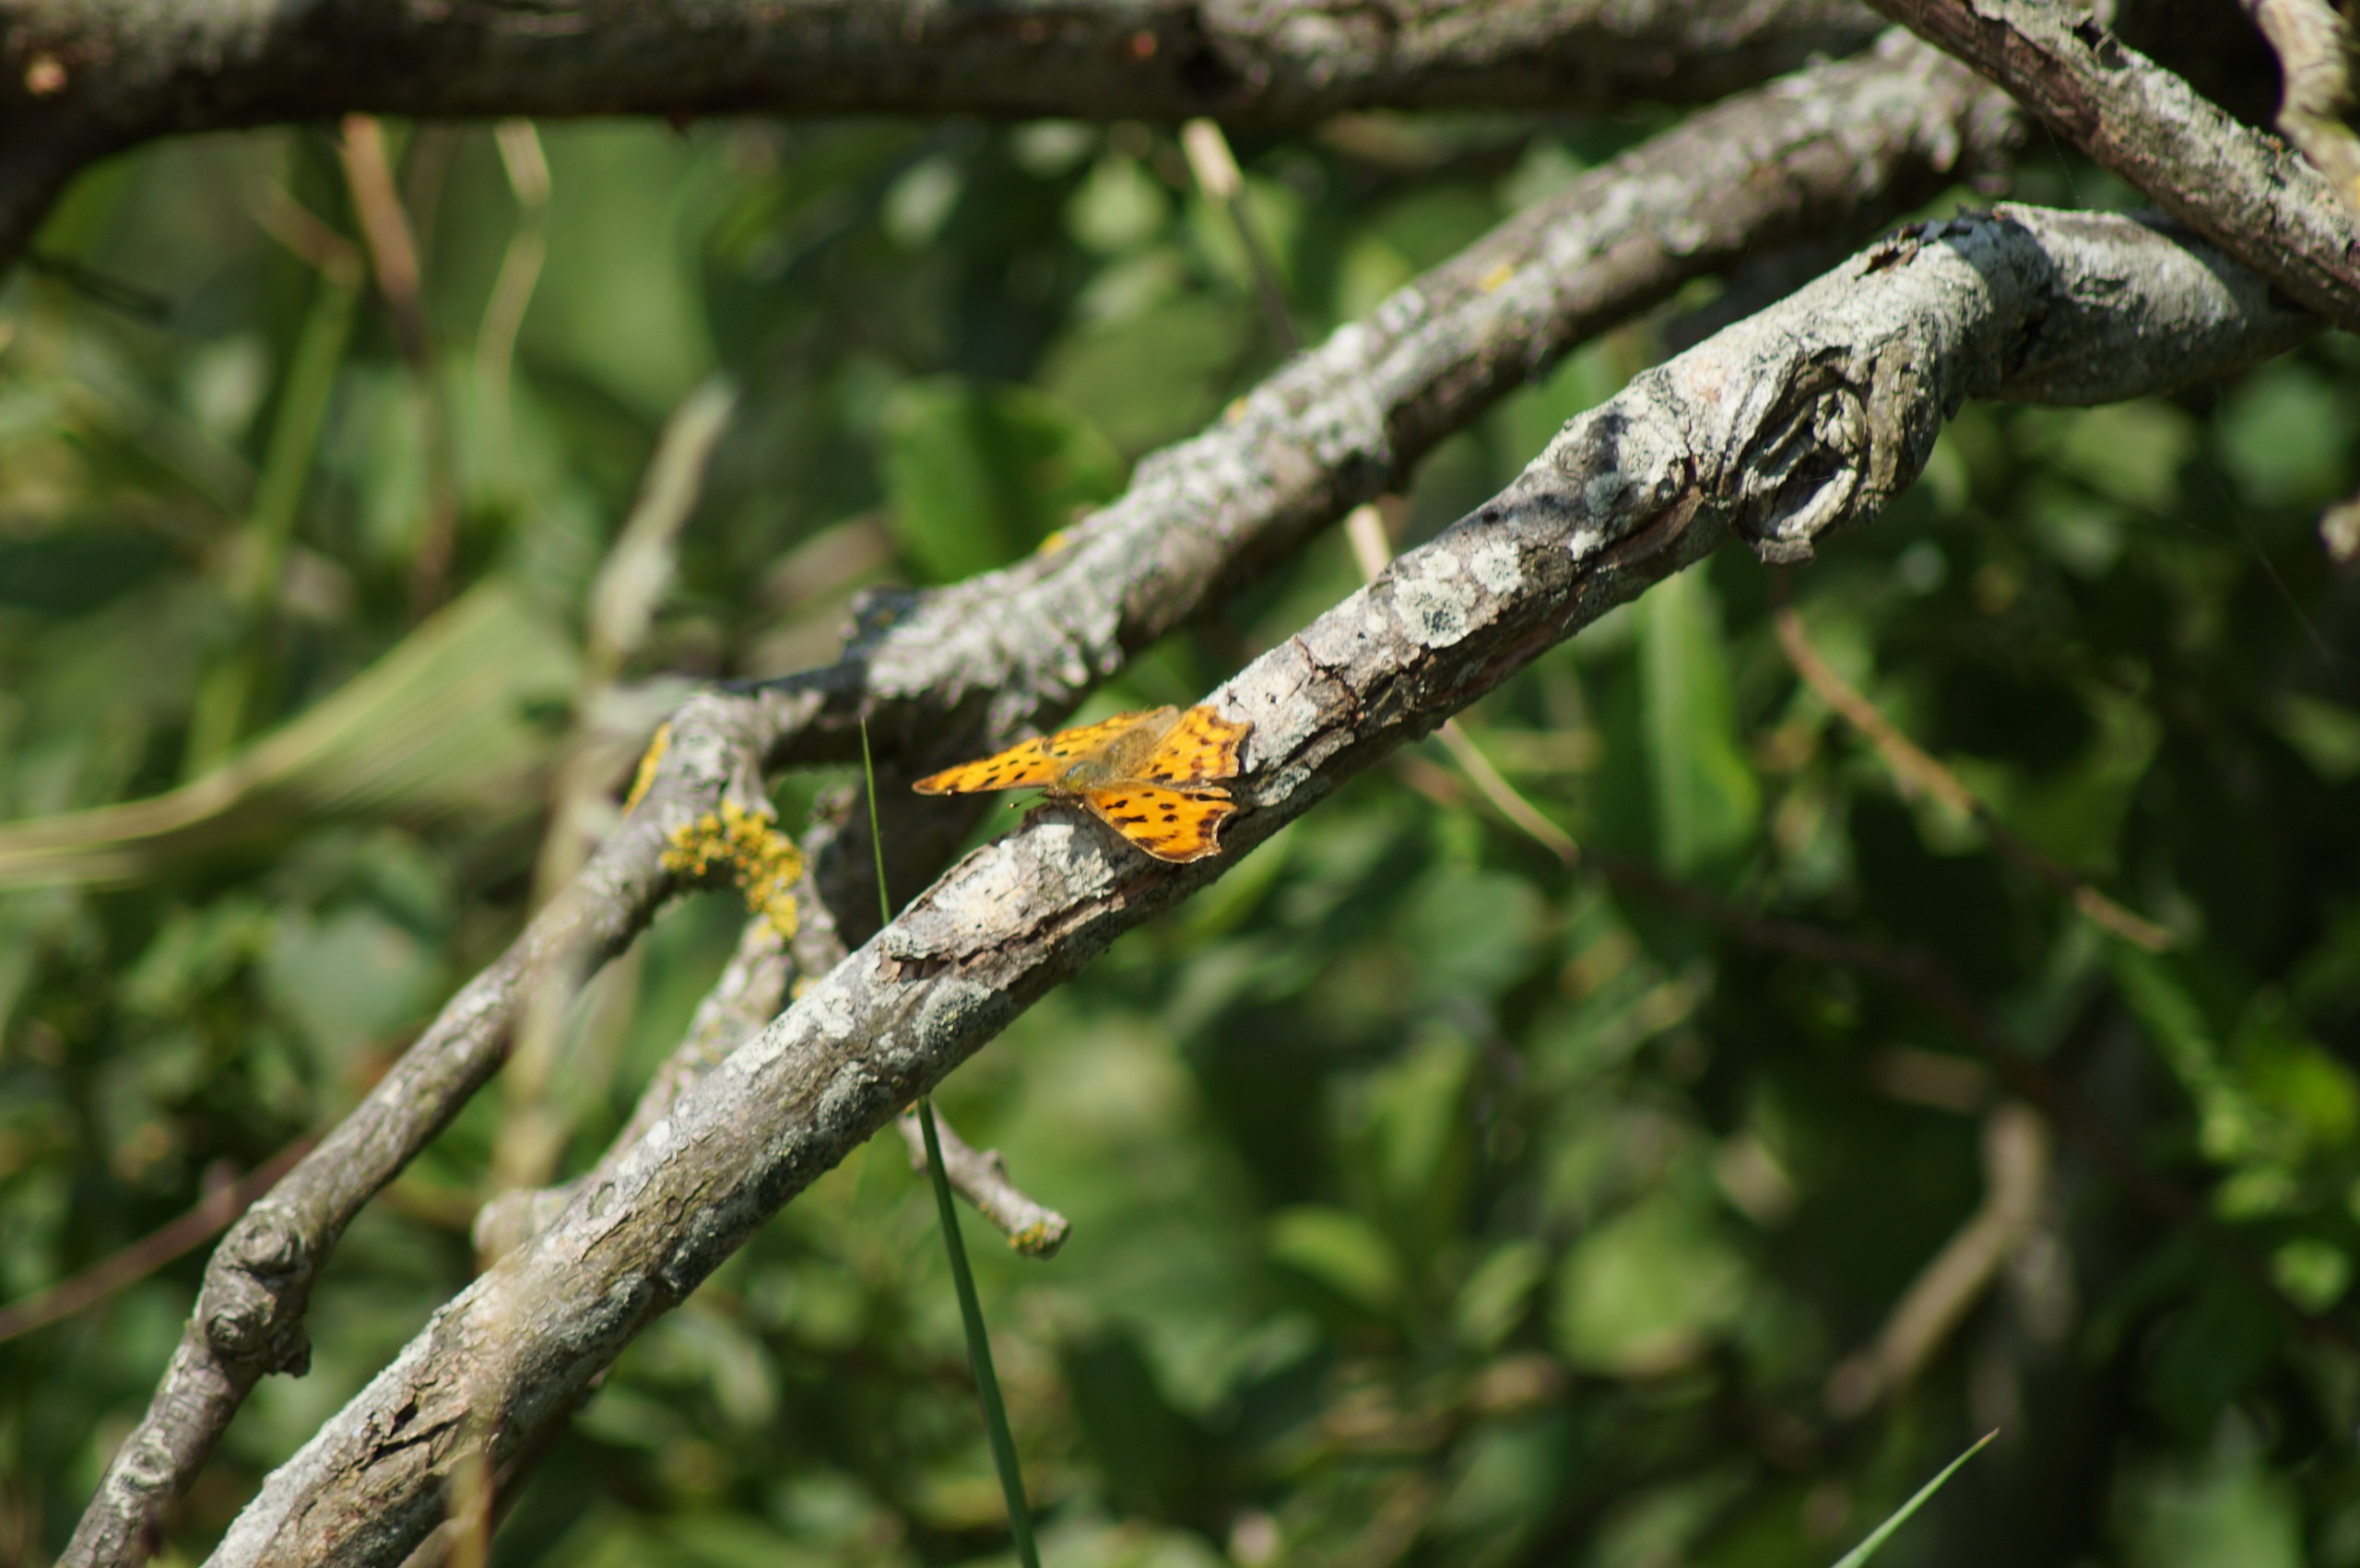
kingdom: Animalia
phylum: Arthropoda
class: Insecta
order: Lepidoptera
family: Nymphalidae
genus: Polygonia
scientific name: Polygonia c-album
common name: Det hvide C
